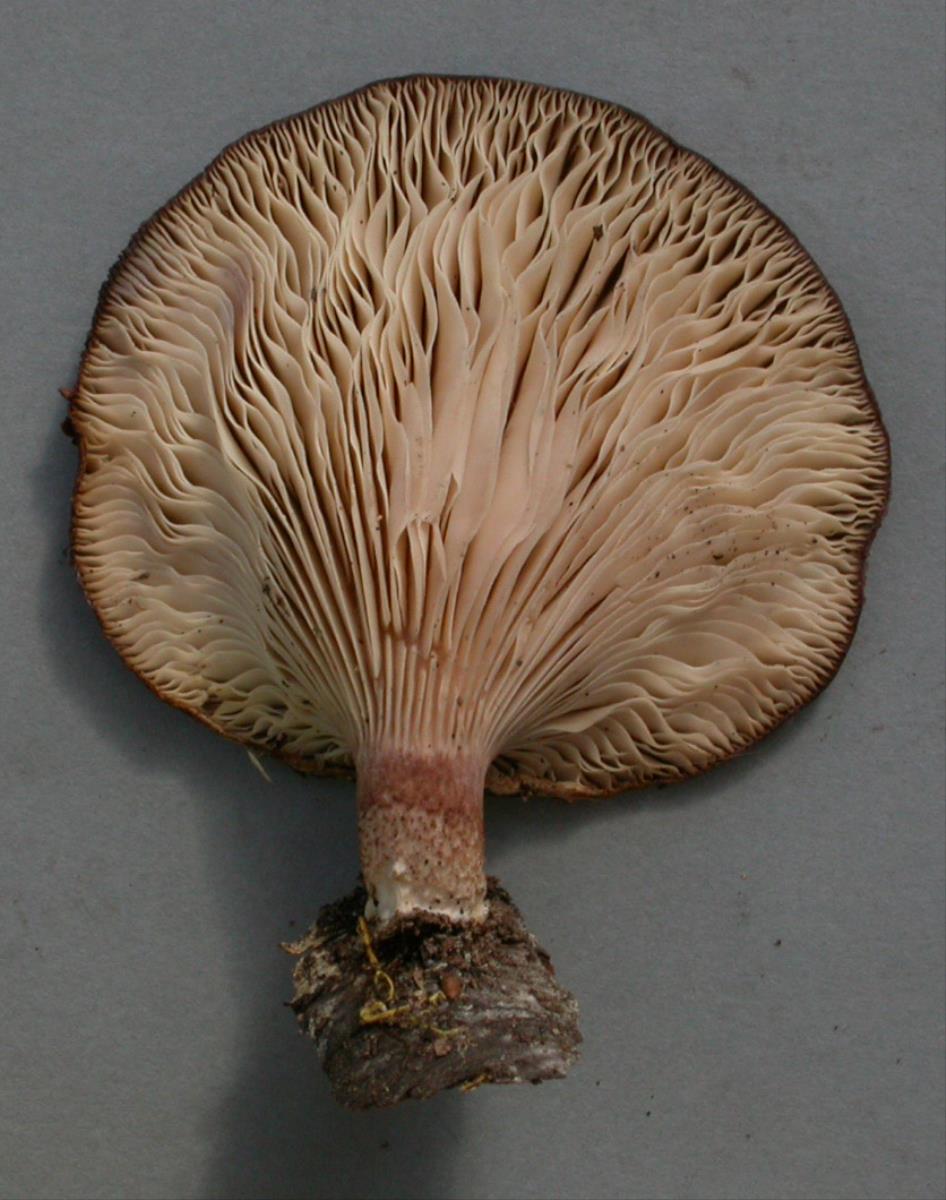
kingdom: Fungi
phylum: Basidiomycota
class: Agaricomycetes
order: Polyporales
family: Panaceae
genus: Panus
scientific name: Panus purpuratus
